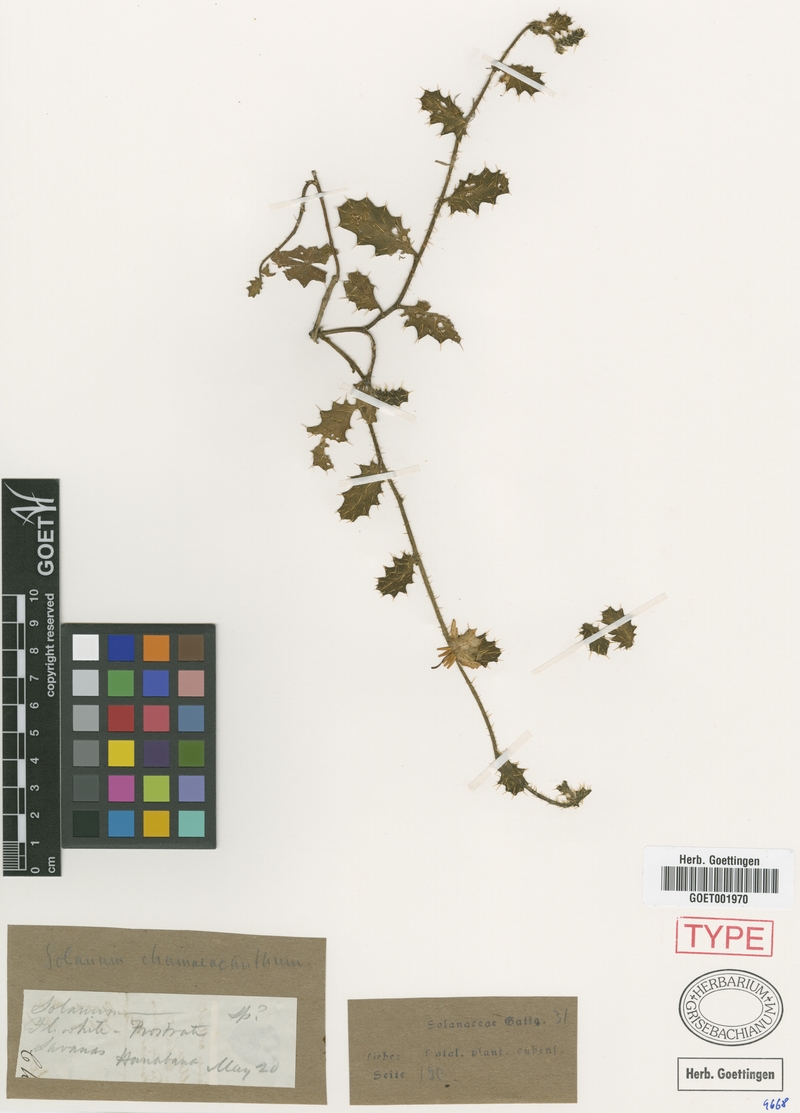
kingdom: Plantae
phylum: Tracheophyta
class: Magnoliopsida
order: Solanales
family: Solanaceae
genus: Solanum
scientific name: Solanum chamaeacanthum
